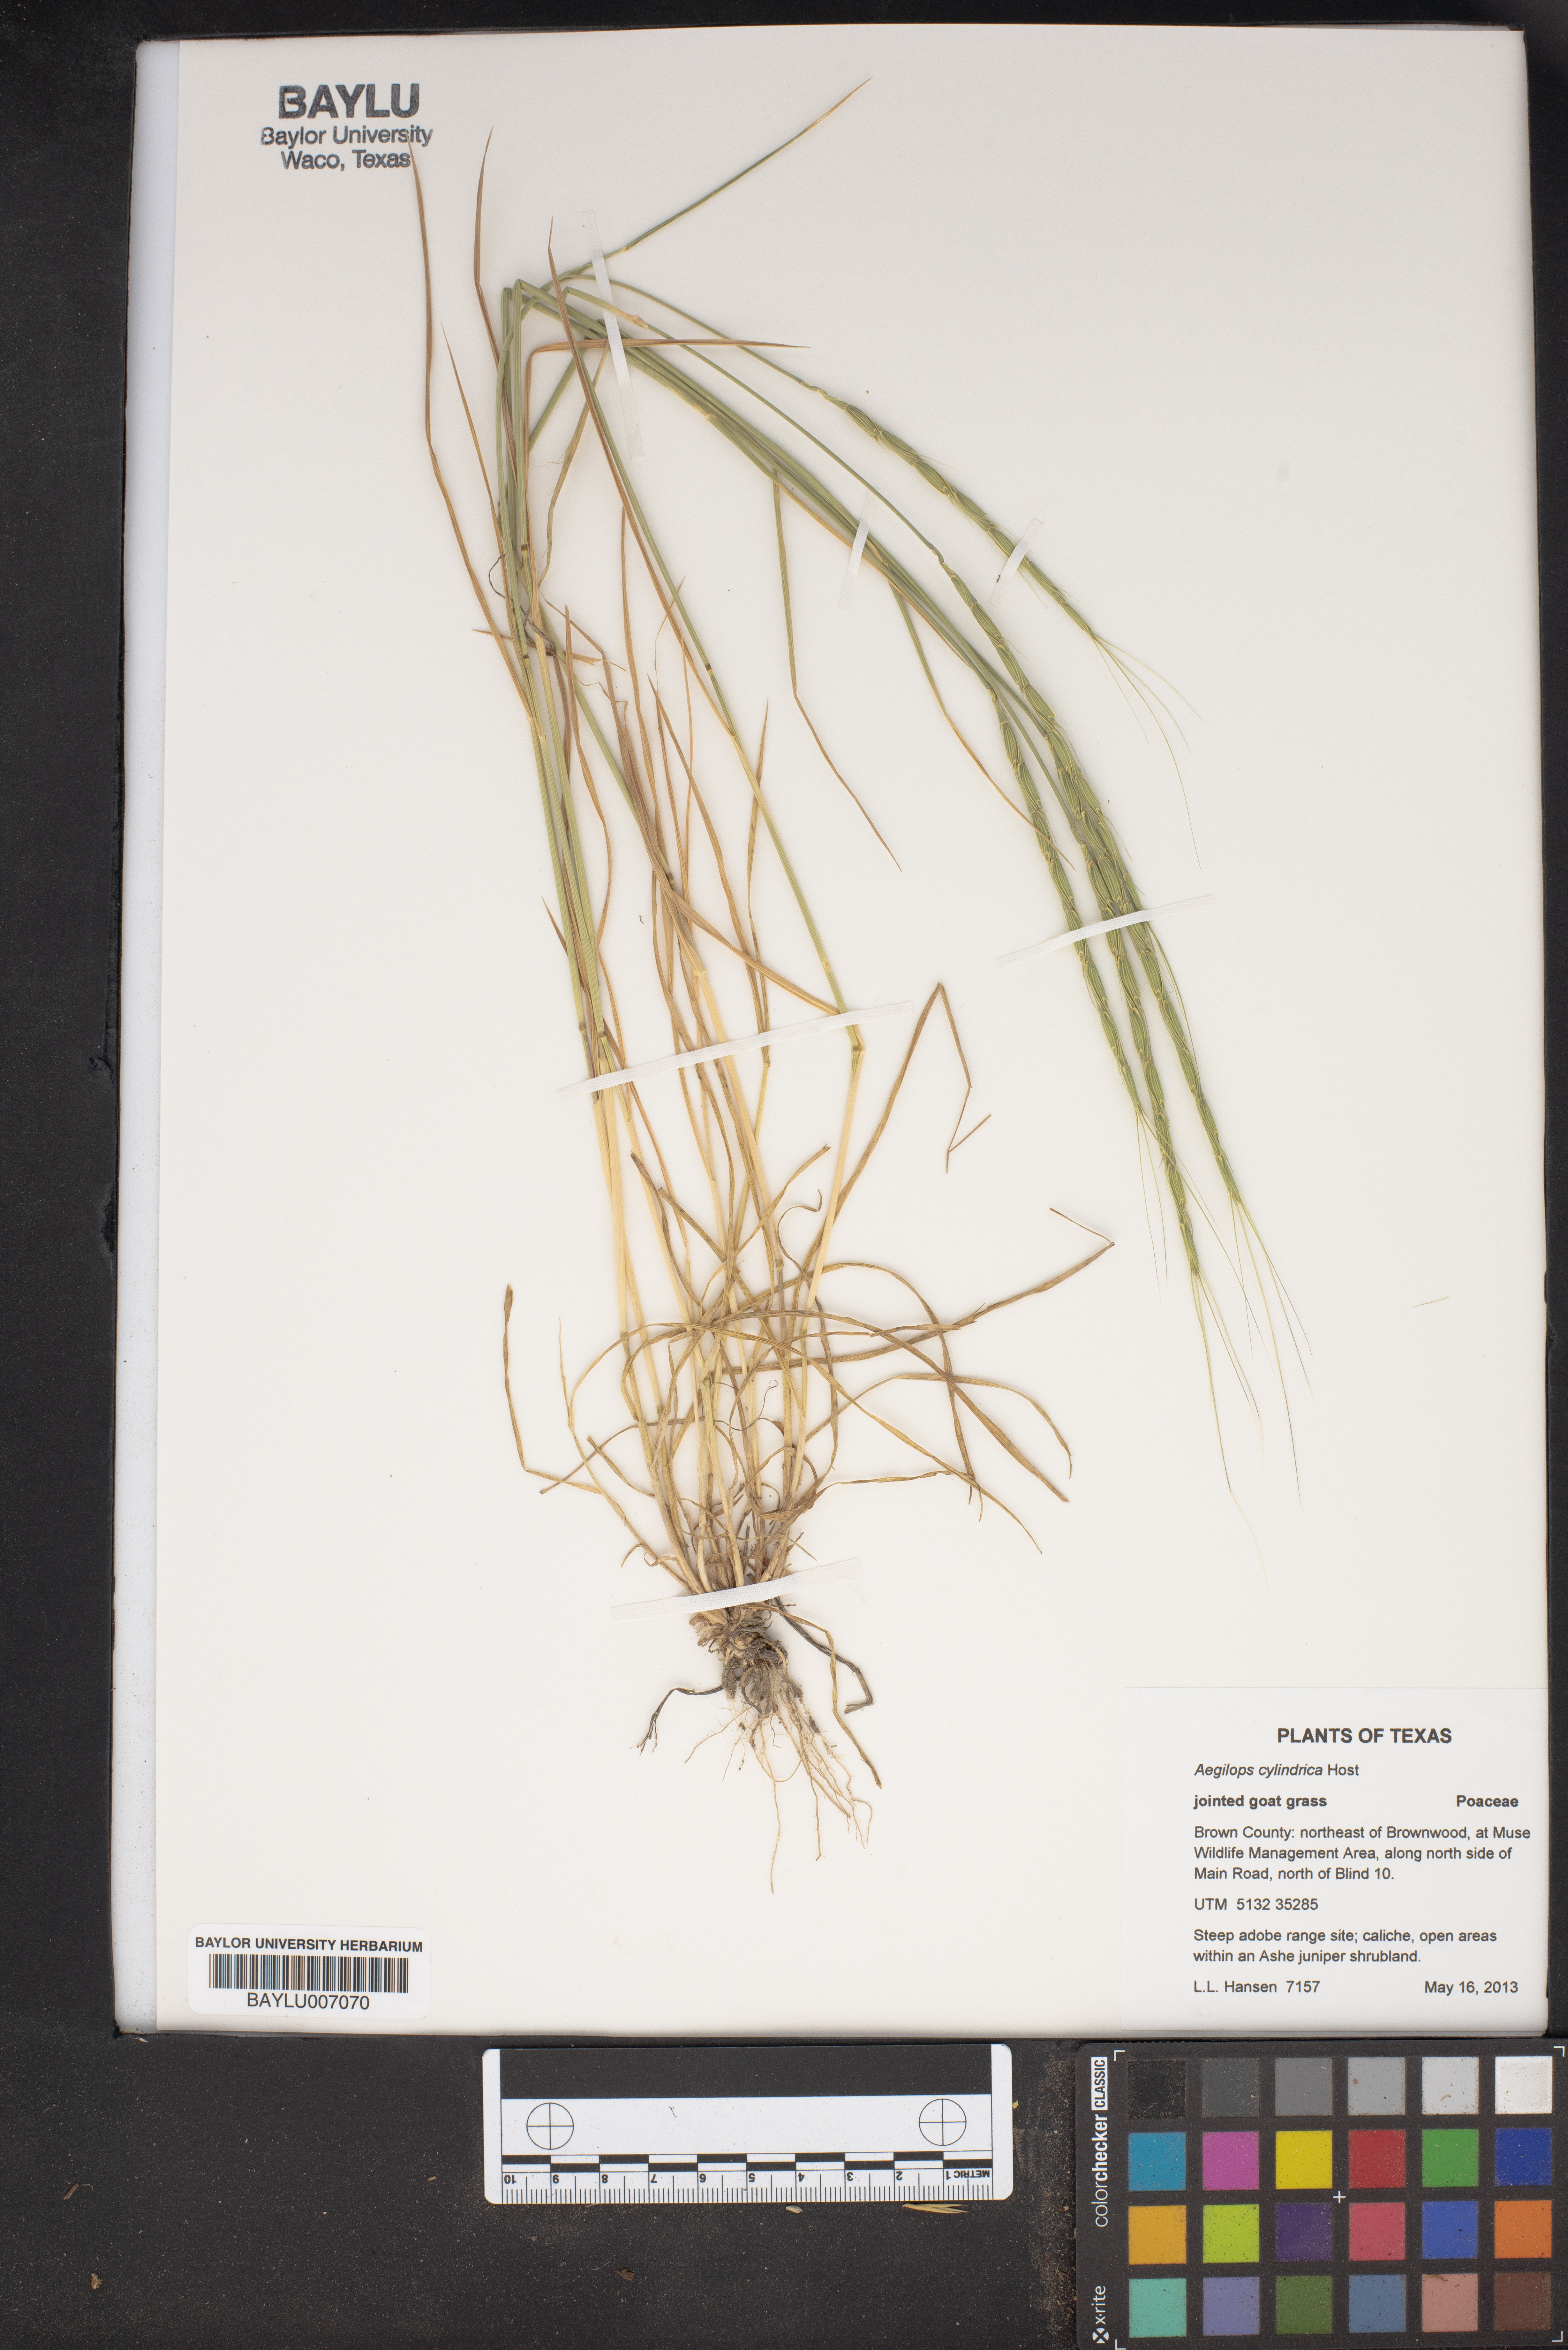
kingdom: Plantae
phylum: Tracheophyta
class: Liliopsida
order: Poales
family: Poaceae
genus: Aegilops
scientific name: Aegilops cylindrica
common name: Jointed goatgrass
